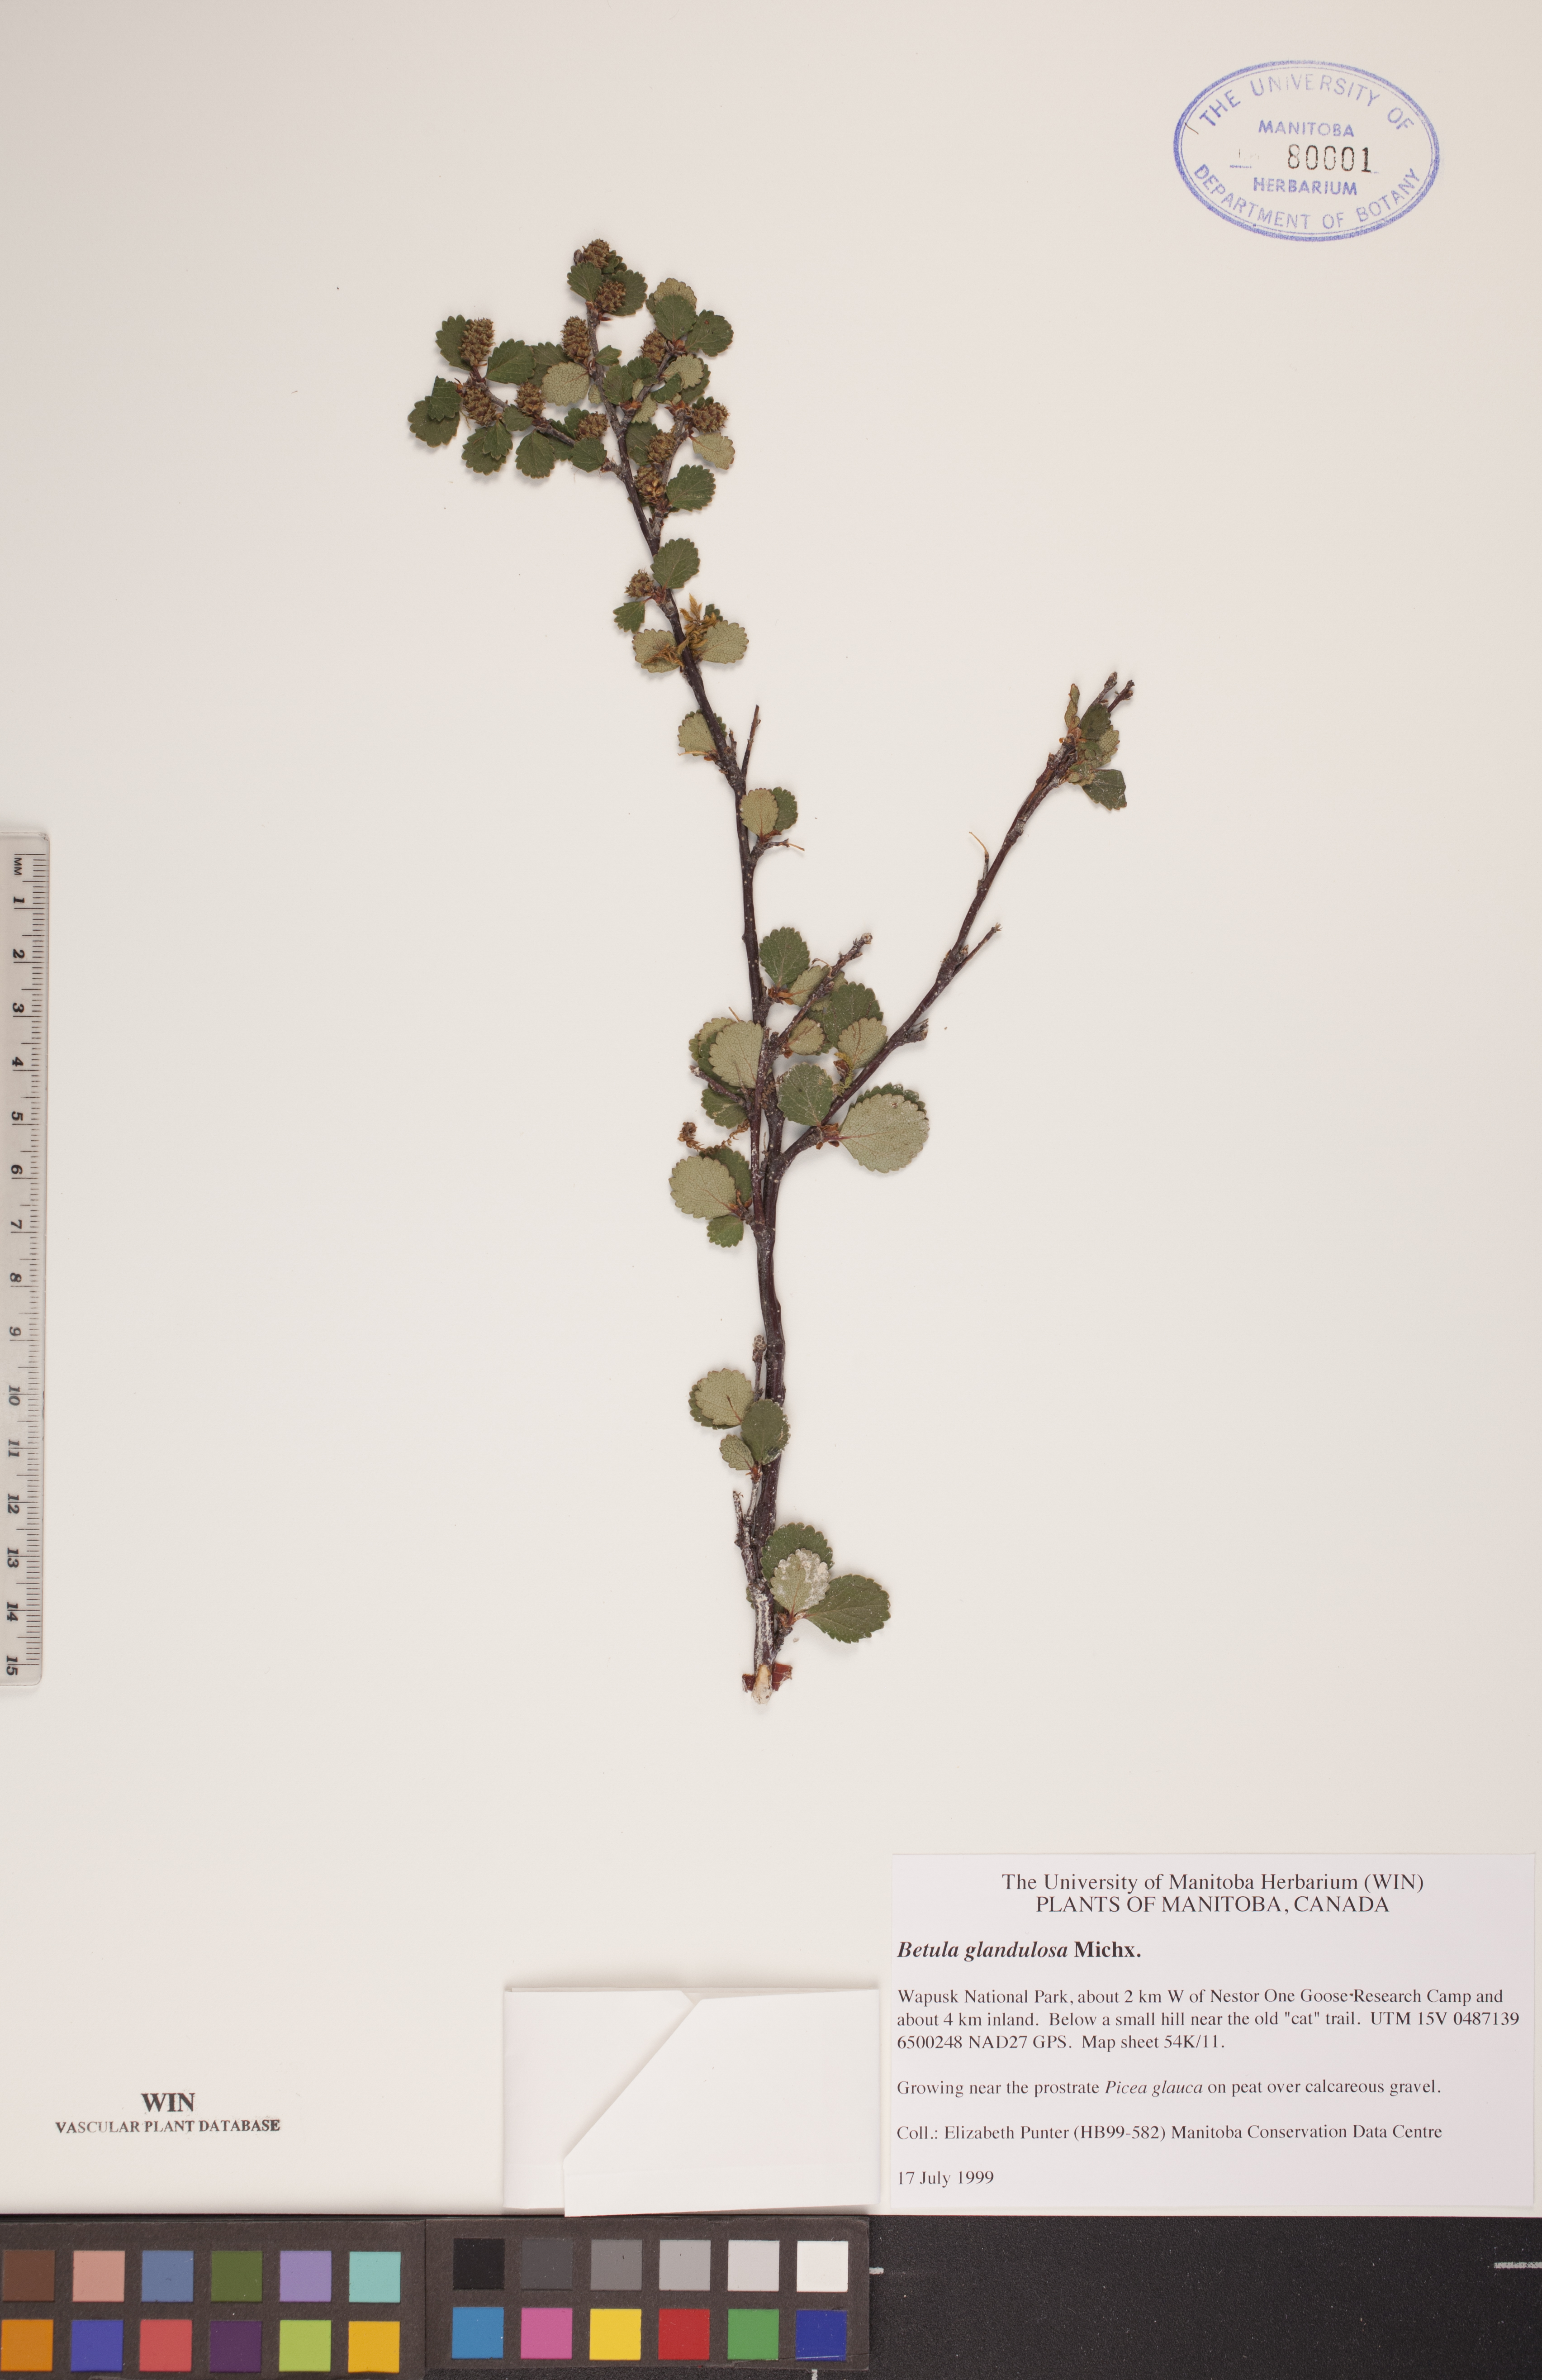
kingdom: Plantae
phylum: Tracheophyta
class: Magnoliopsida
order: Fagales
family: Betulaceae
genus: Betula
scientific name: Betula glandulosa
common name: Dwarf birch
